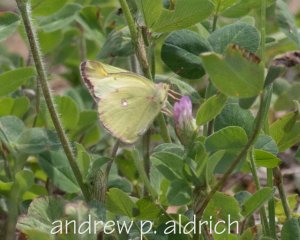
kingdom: Animalia
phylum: Arthropoda
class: Insecta
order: Lepidoptera
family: Pieridae
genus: Colias
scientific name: Colias interior
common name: Pink-edged Sulphur
